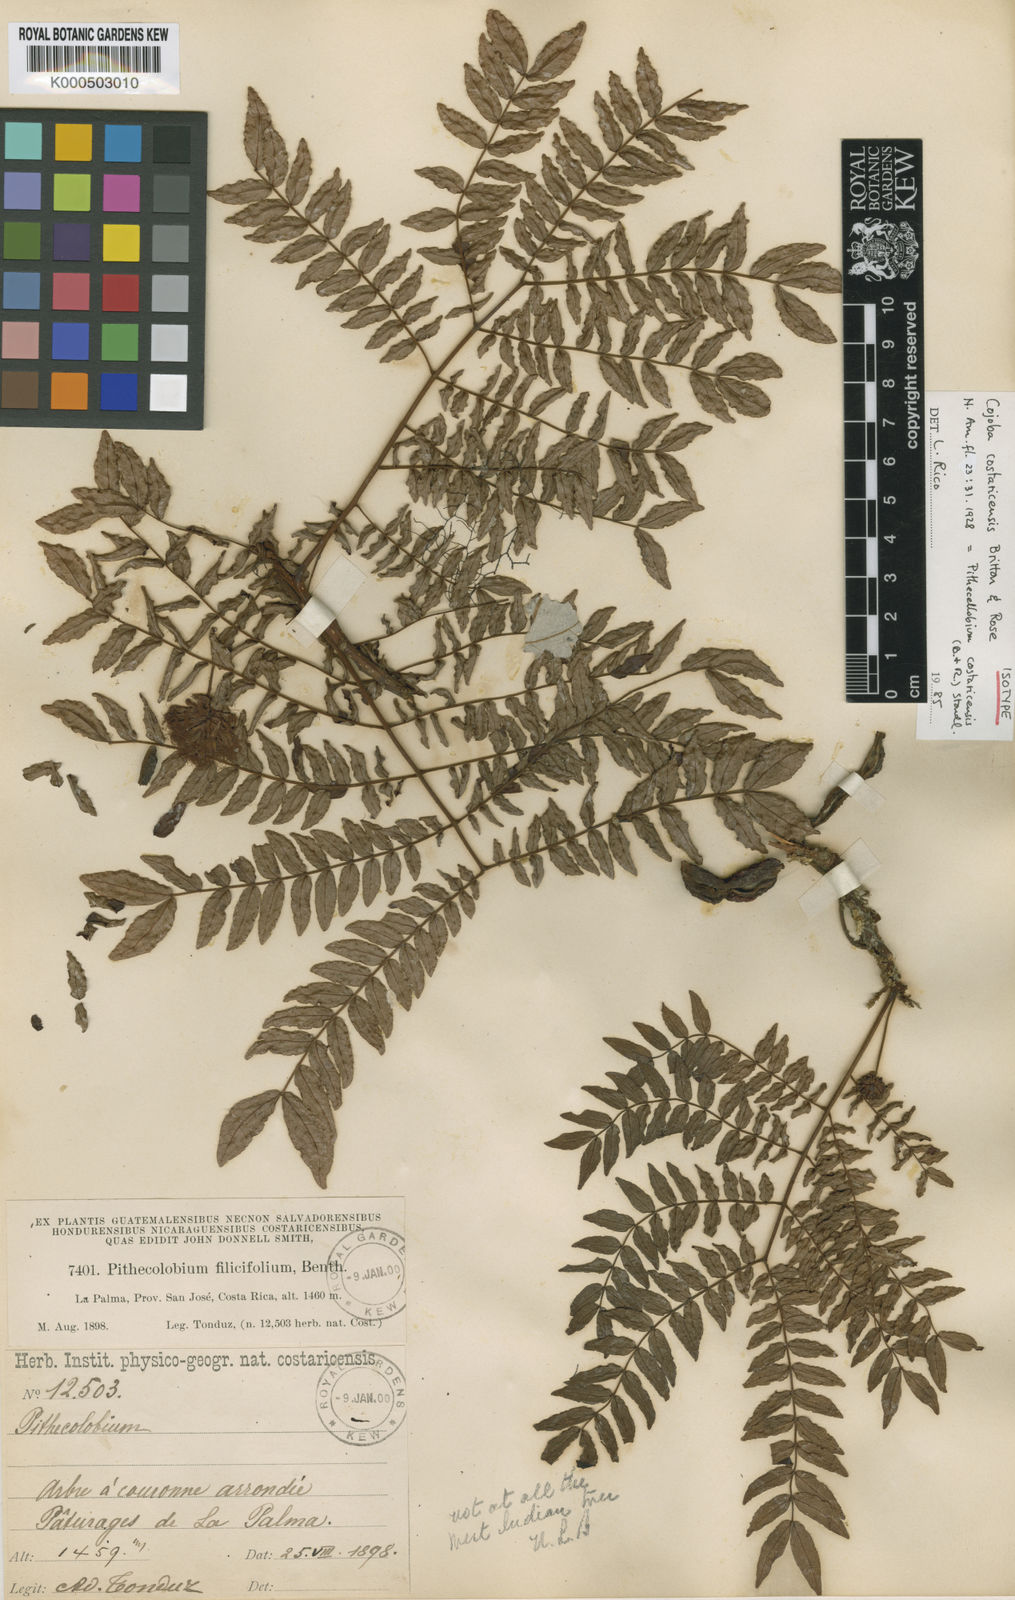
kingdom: Plantae
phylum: Tracheophyta
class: Magnoliopsida
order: Fabales
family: Fabaceae
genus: Cojoba
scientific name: Cojoba costaricensis
